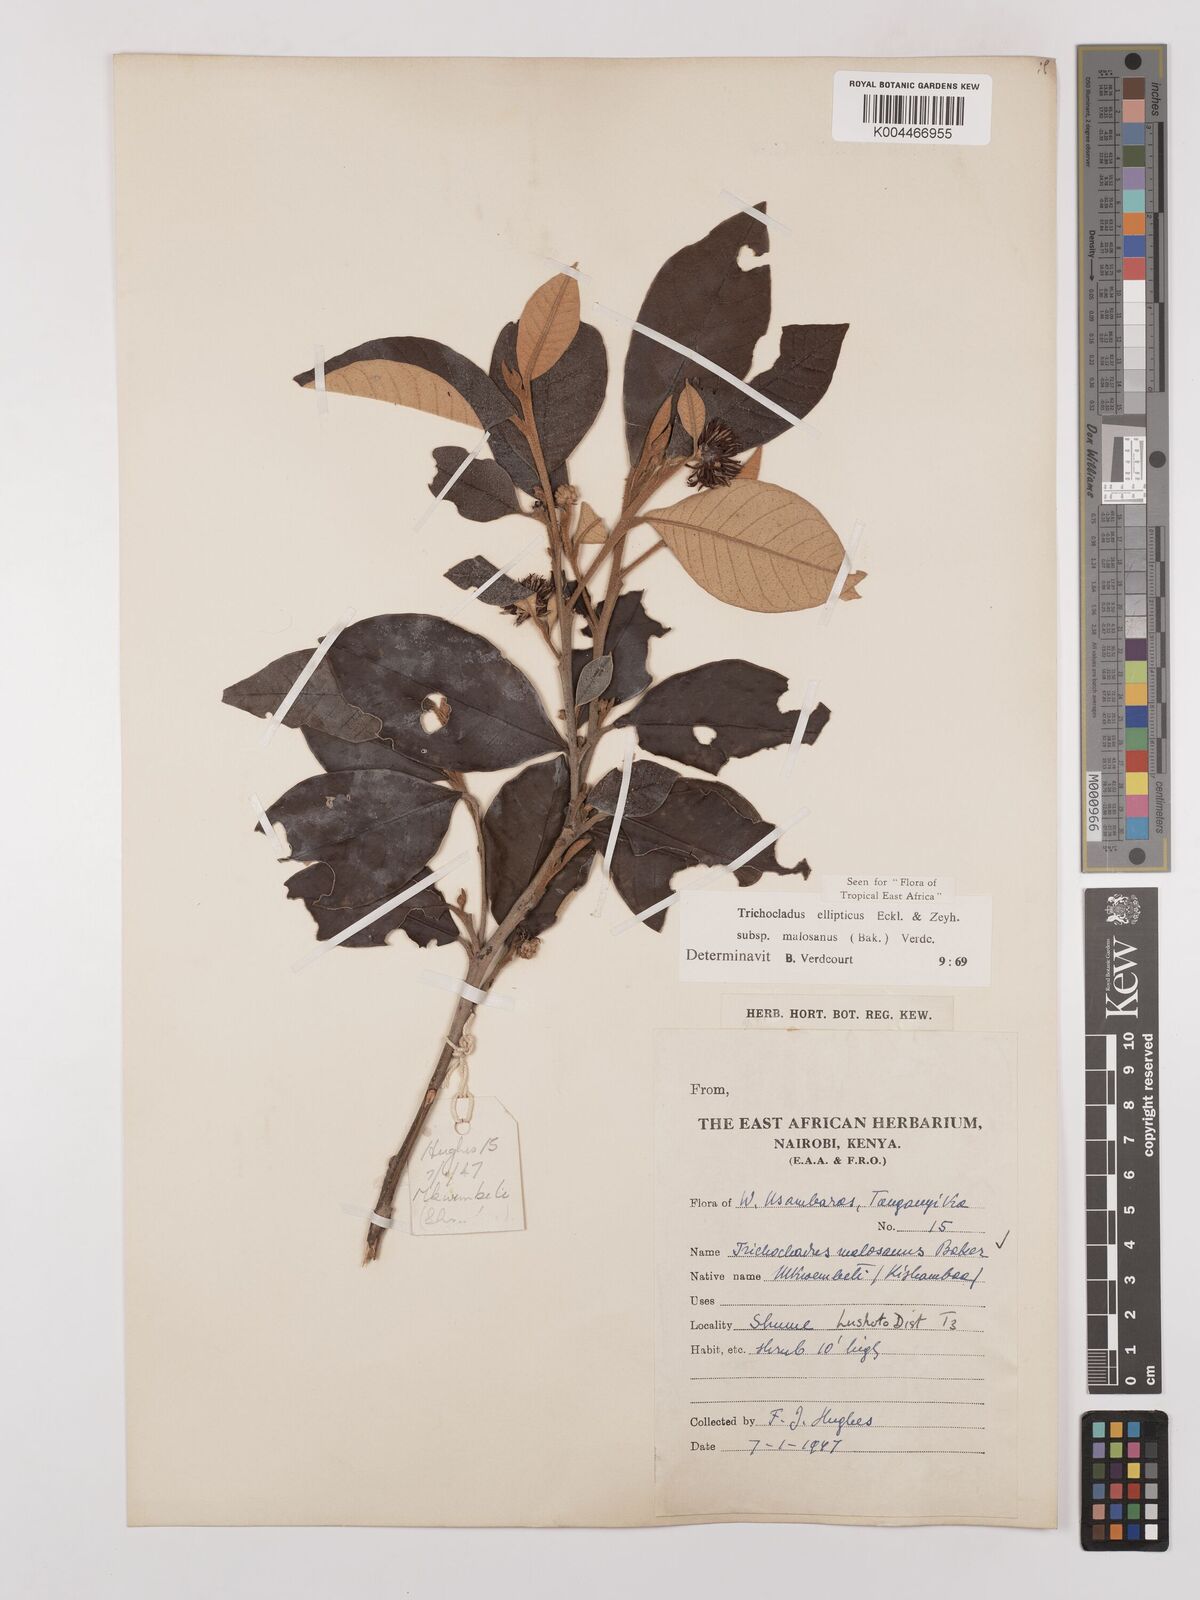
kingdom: Plantae
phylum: Tracheophyta
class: Magnoliopsida
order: Saxifragales
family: Hamamelidaceae
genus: Trichocladus
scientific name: Trichocladus ellipticus
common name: White witch-hazel
